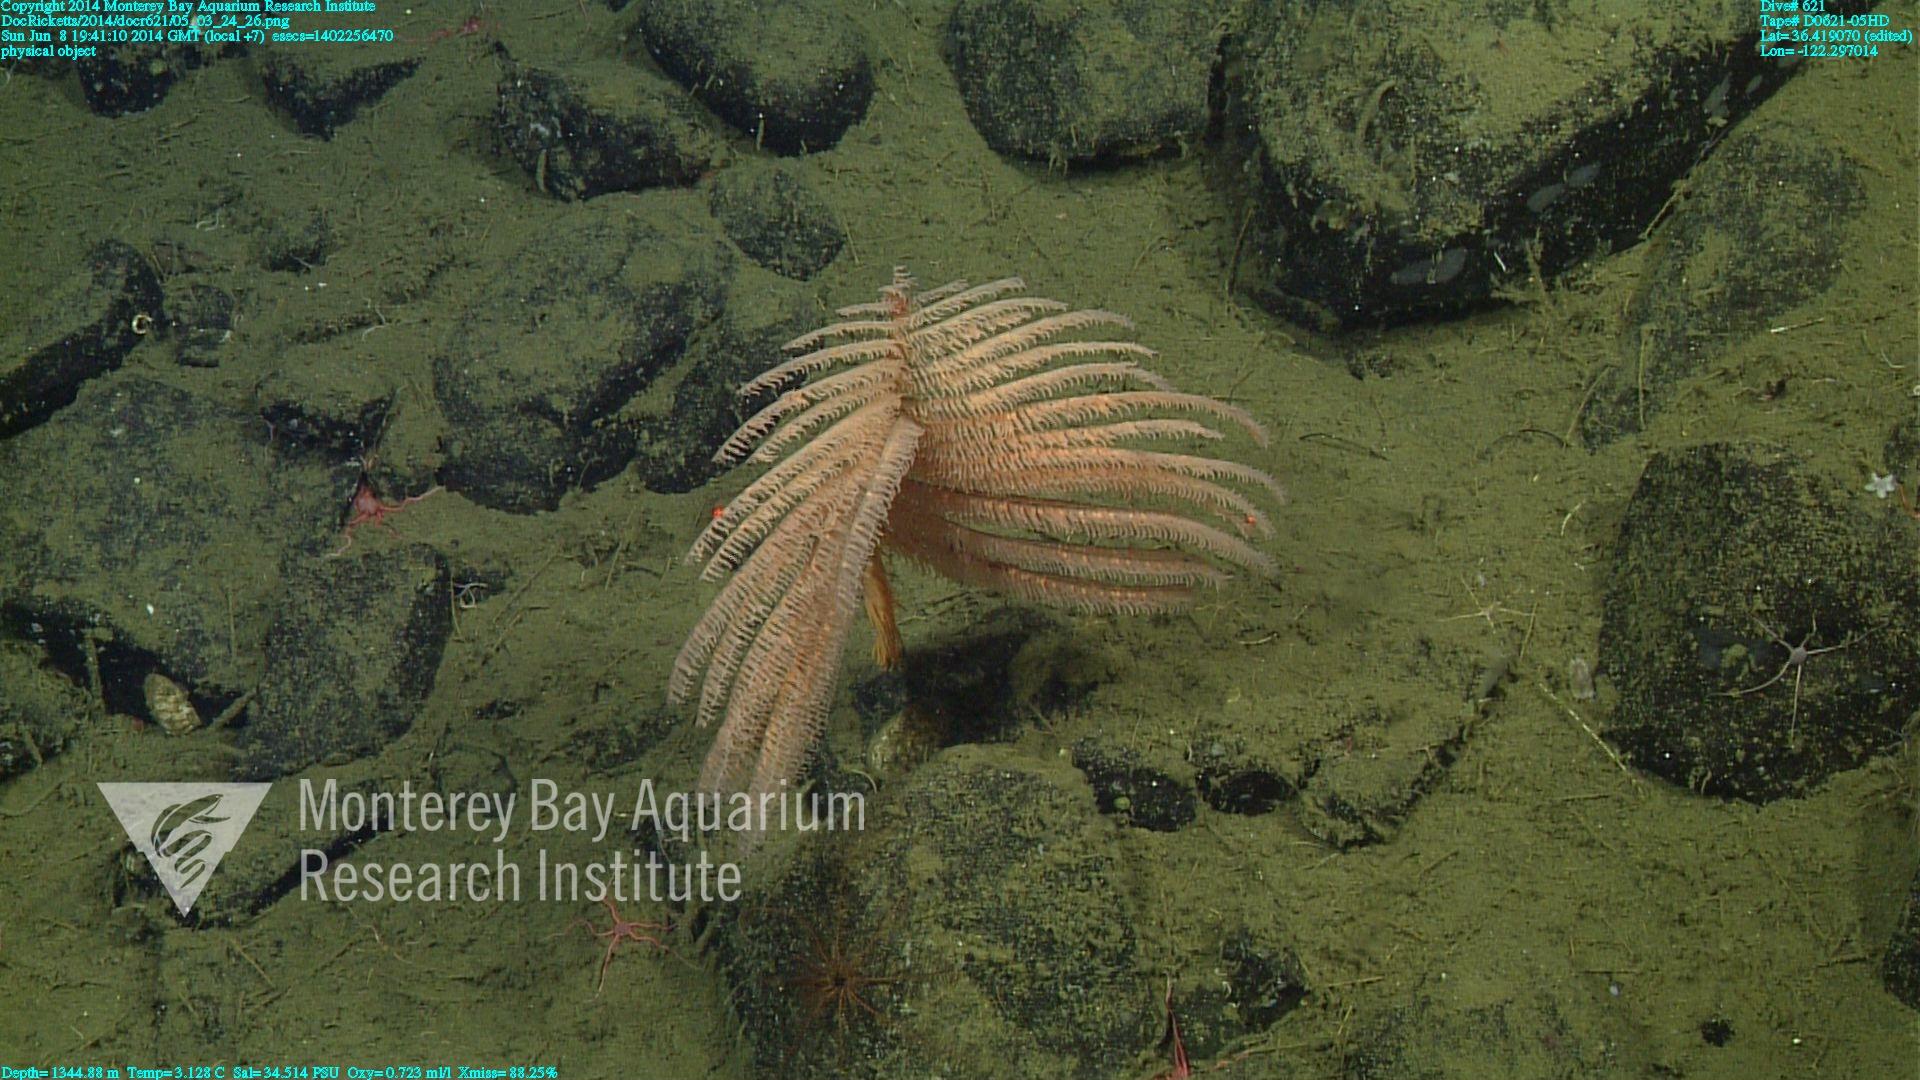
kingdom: Animalia
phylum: Cnidaria
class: Anthozoa
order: Antipatharia
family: Schizopathidae
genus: Bathypathes
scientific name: Bathypathes
